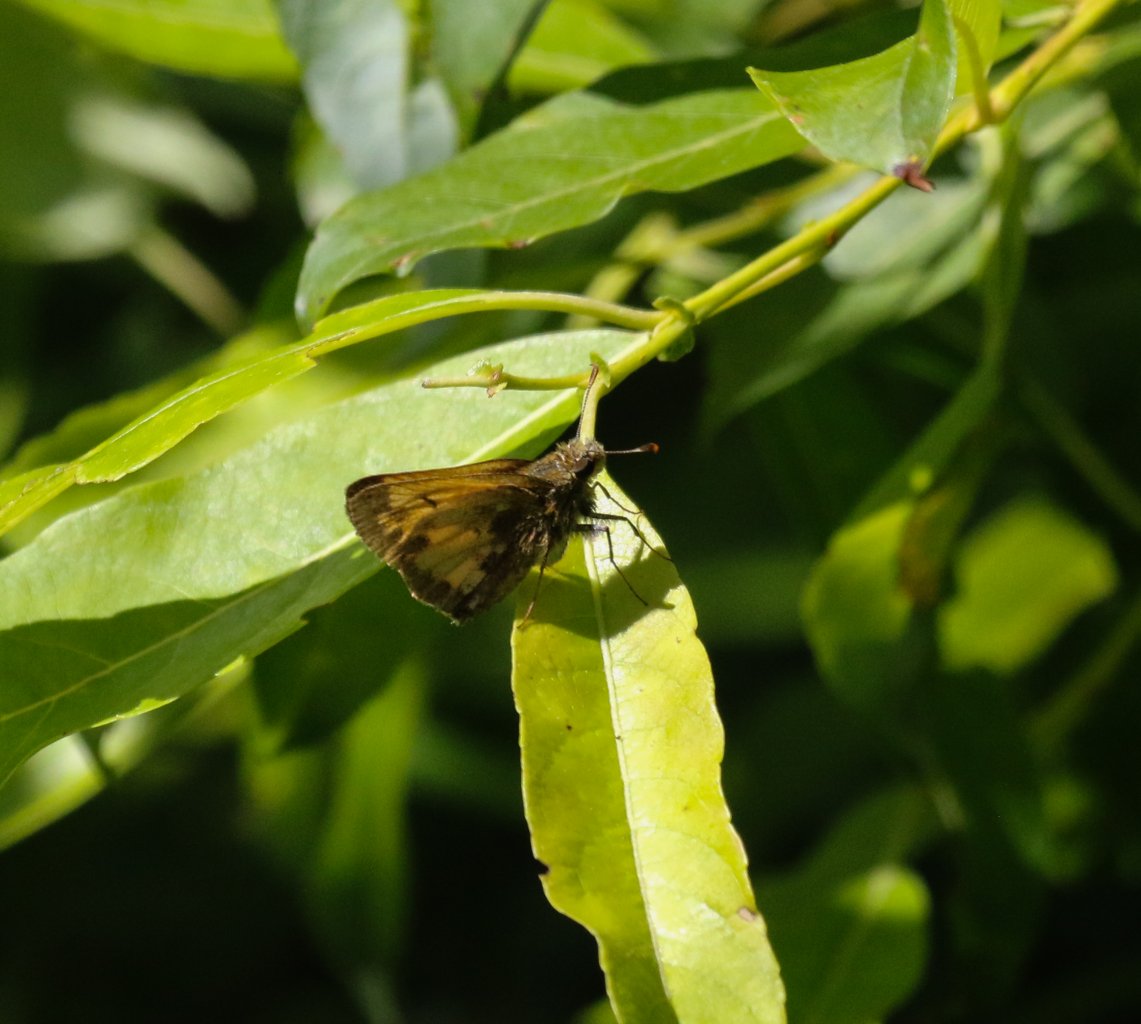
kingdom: Animalia
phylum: Arthropoda
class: Insecta
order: Lepidoptera
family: Hesperiidae
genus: Lon
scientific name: Lon hobomok
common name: Hobomok Skipper
